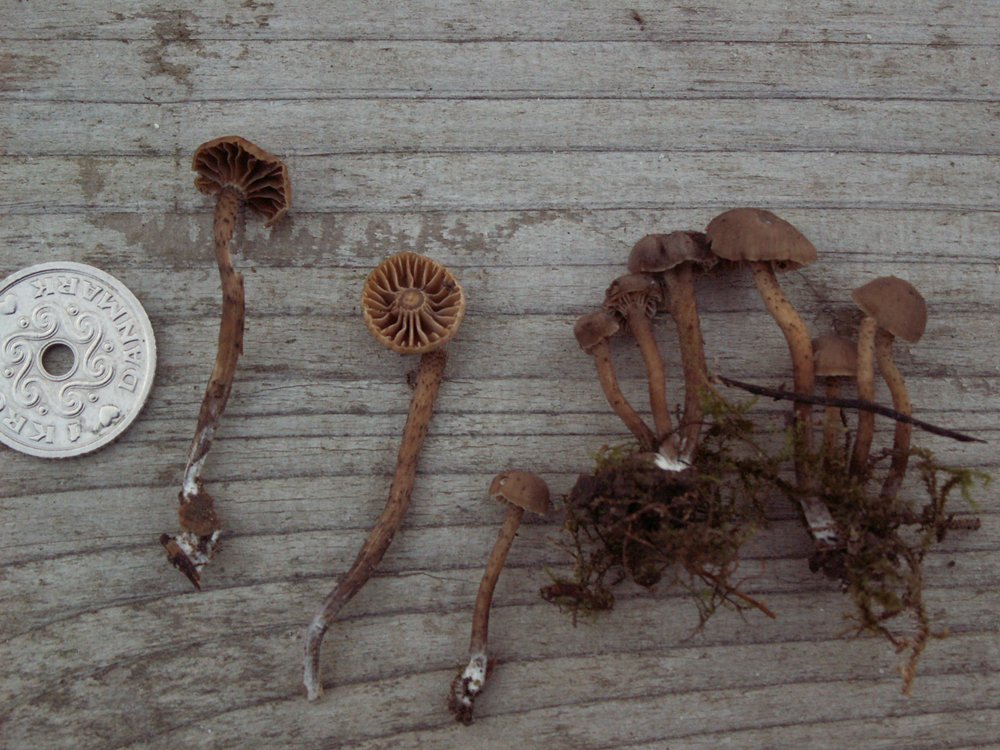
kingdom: Fungi
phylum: Basidiomycota
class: Agaricomycetes
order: Agaricales
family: Clavariaceae
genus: Hodophilus
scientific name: Hodophilus variabilipes
